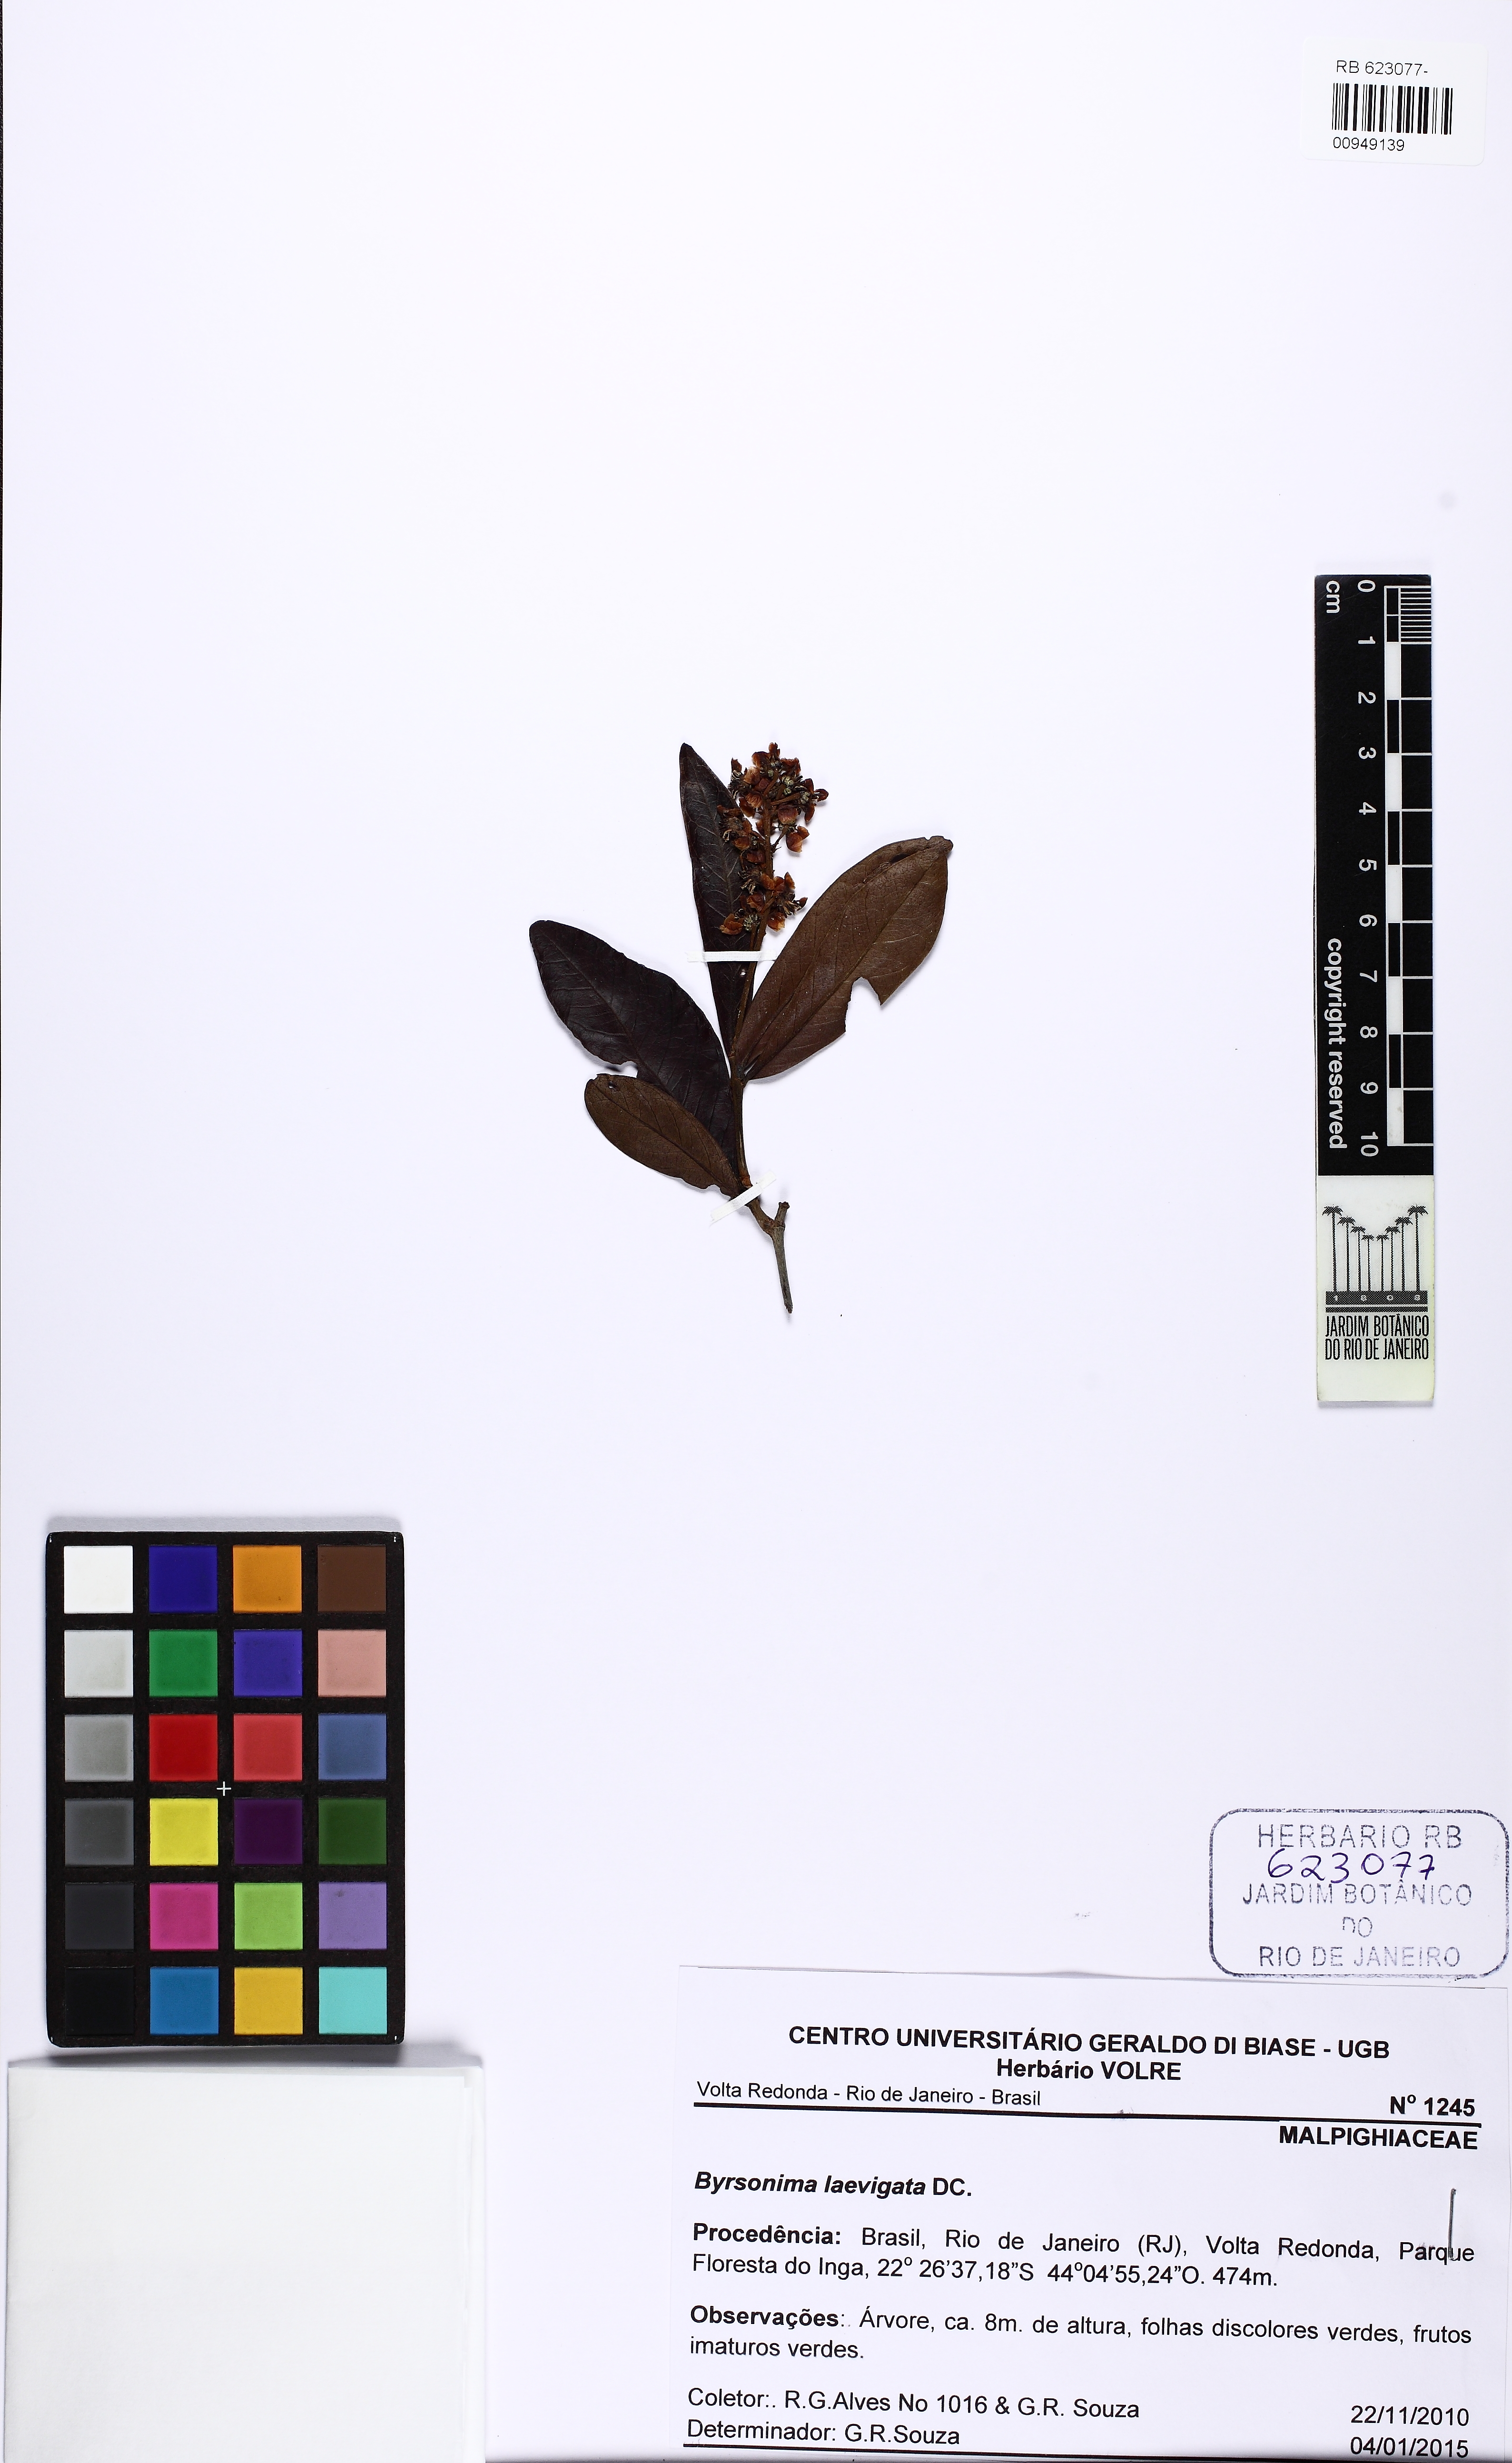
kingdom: Plantae
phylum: Tracheophyta
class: Magnoliopsida
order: Malpighiales
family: Malpighiaceae
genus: Byrsonima
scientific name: Byrsonima laevigata
